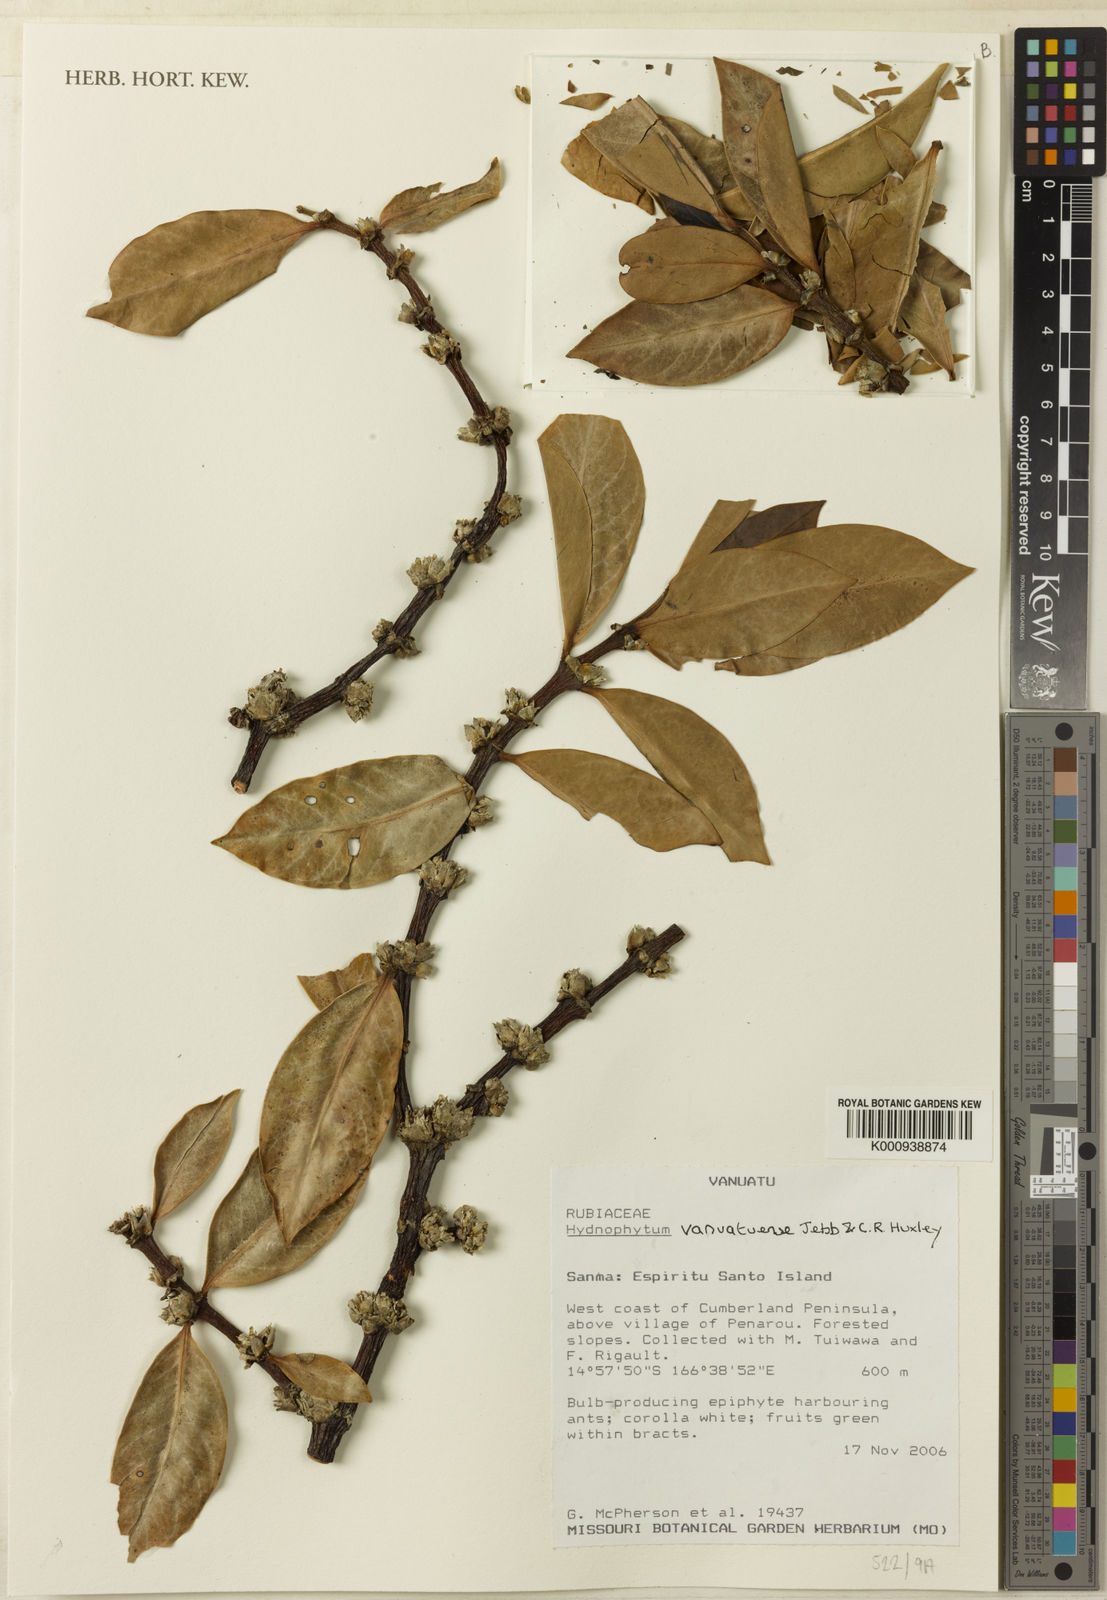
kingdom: Plantae
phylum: Tracheophyta
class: Magnoliopsida
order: Gentianales
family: Rubiaceae
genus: Hydnophytum
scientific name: Hydnophytum
